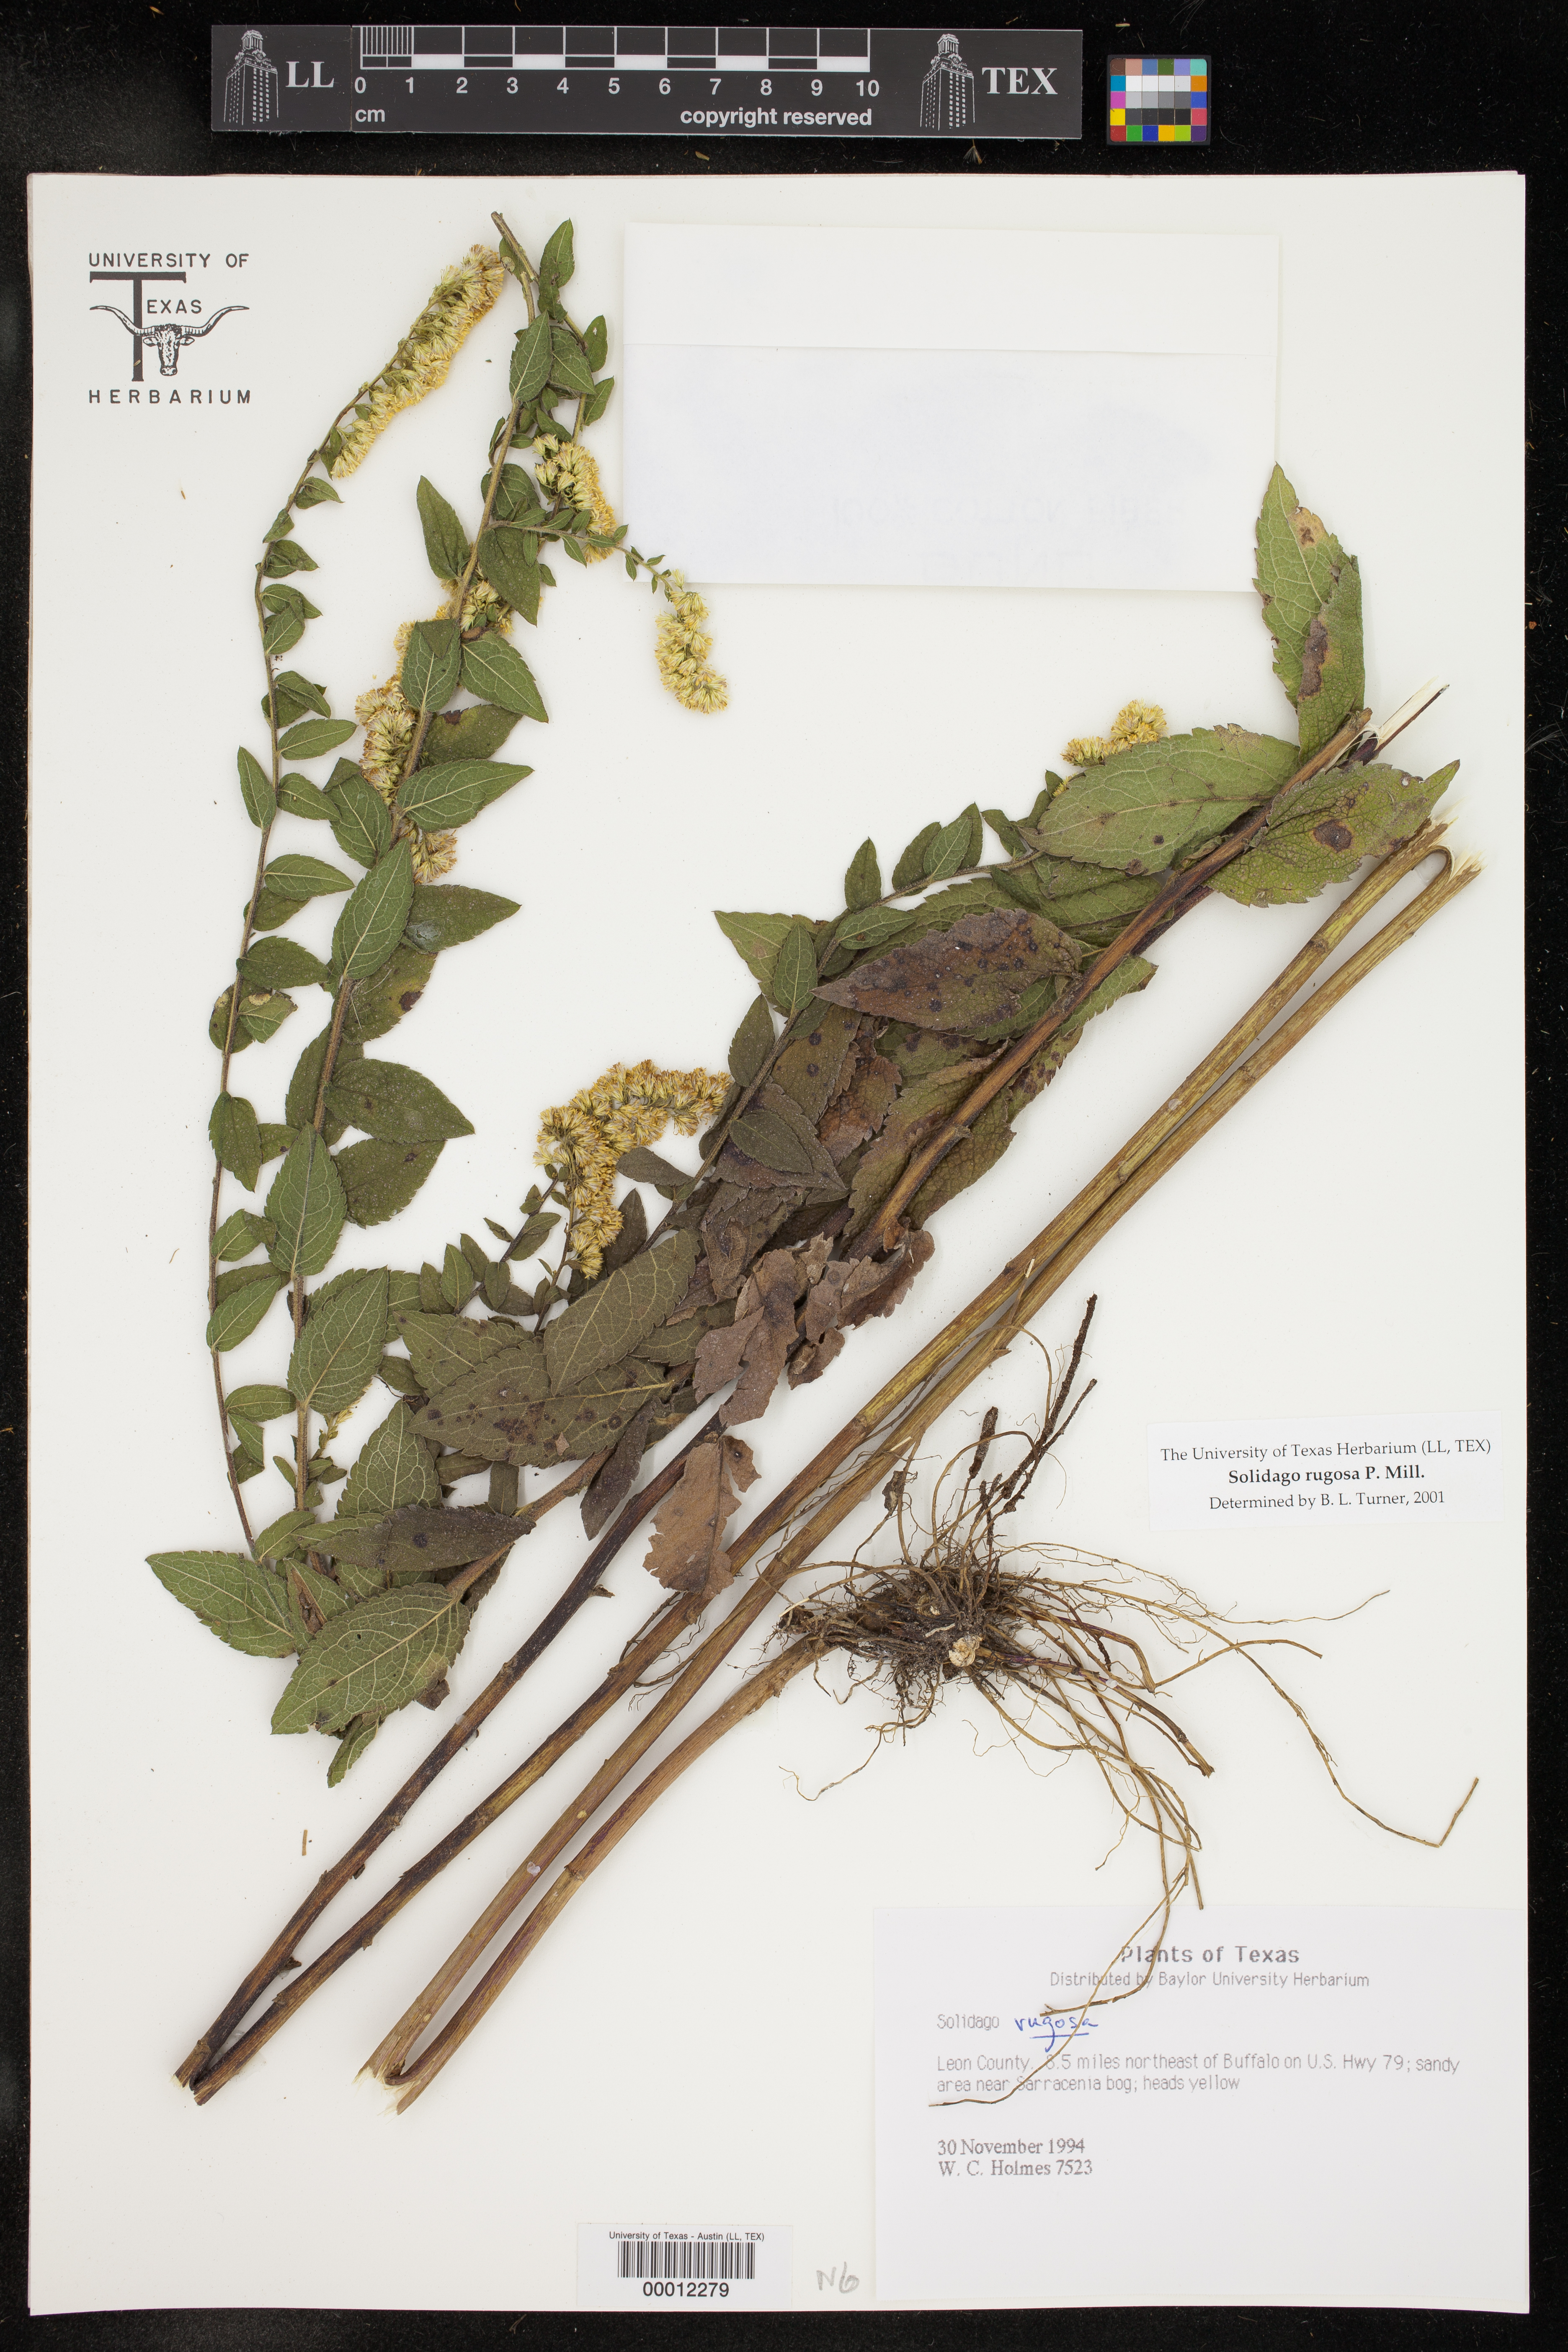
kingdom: Plantae
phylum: Tracheophyta
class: Magnoliopsida
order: Asterales
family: Asteraceae
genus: Solidago
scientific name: Solidago rugosa
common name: Rough-stemmed goldenrod
